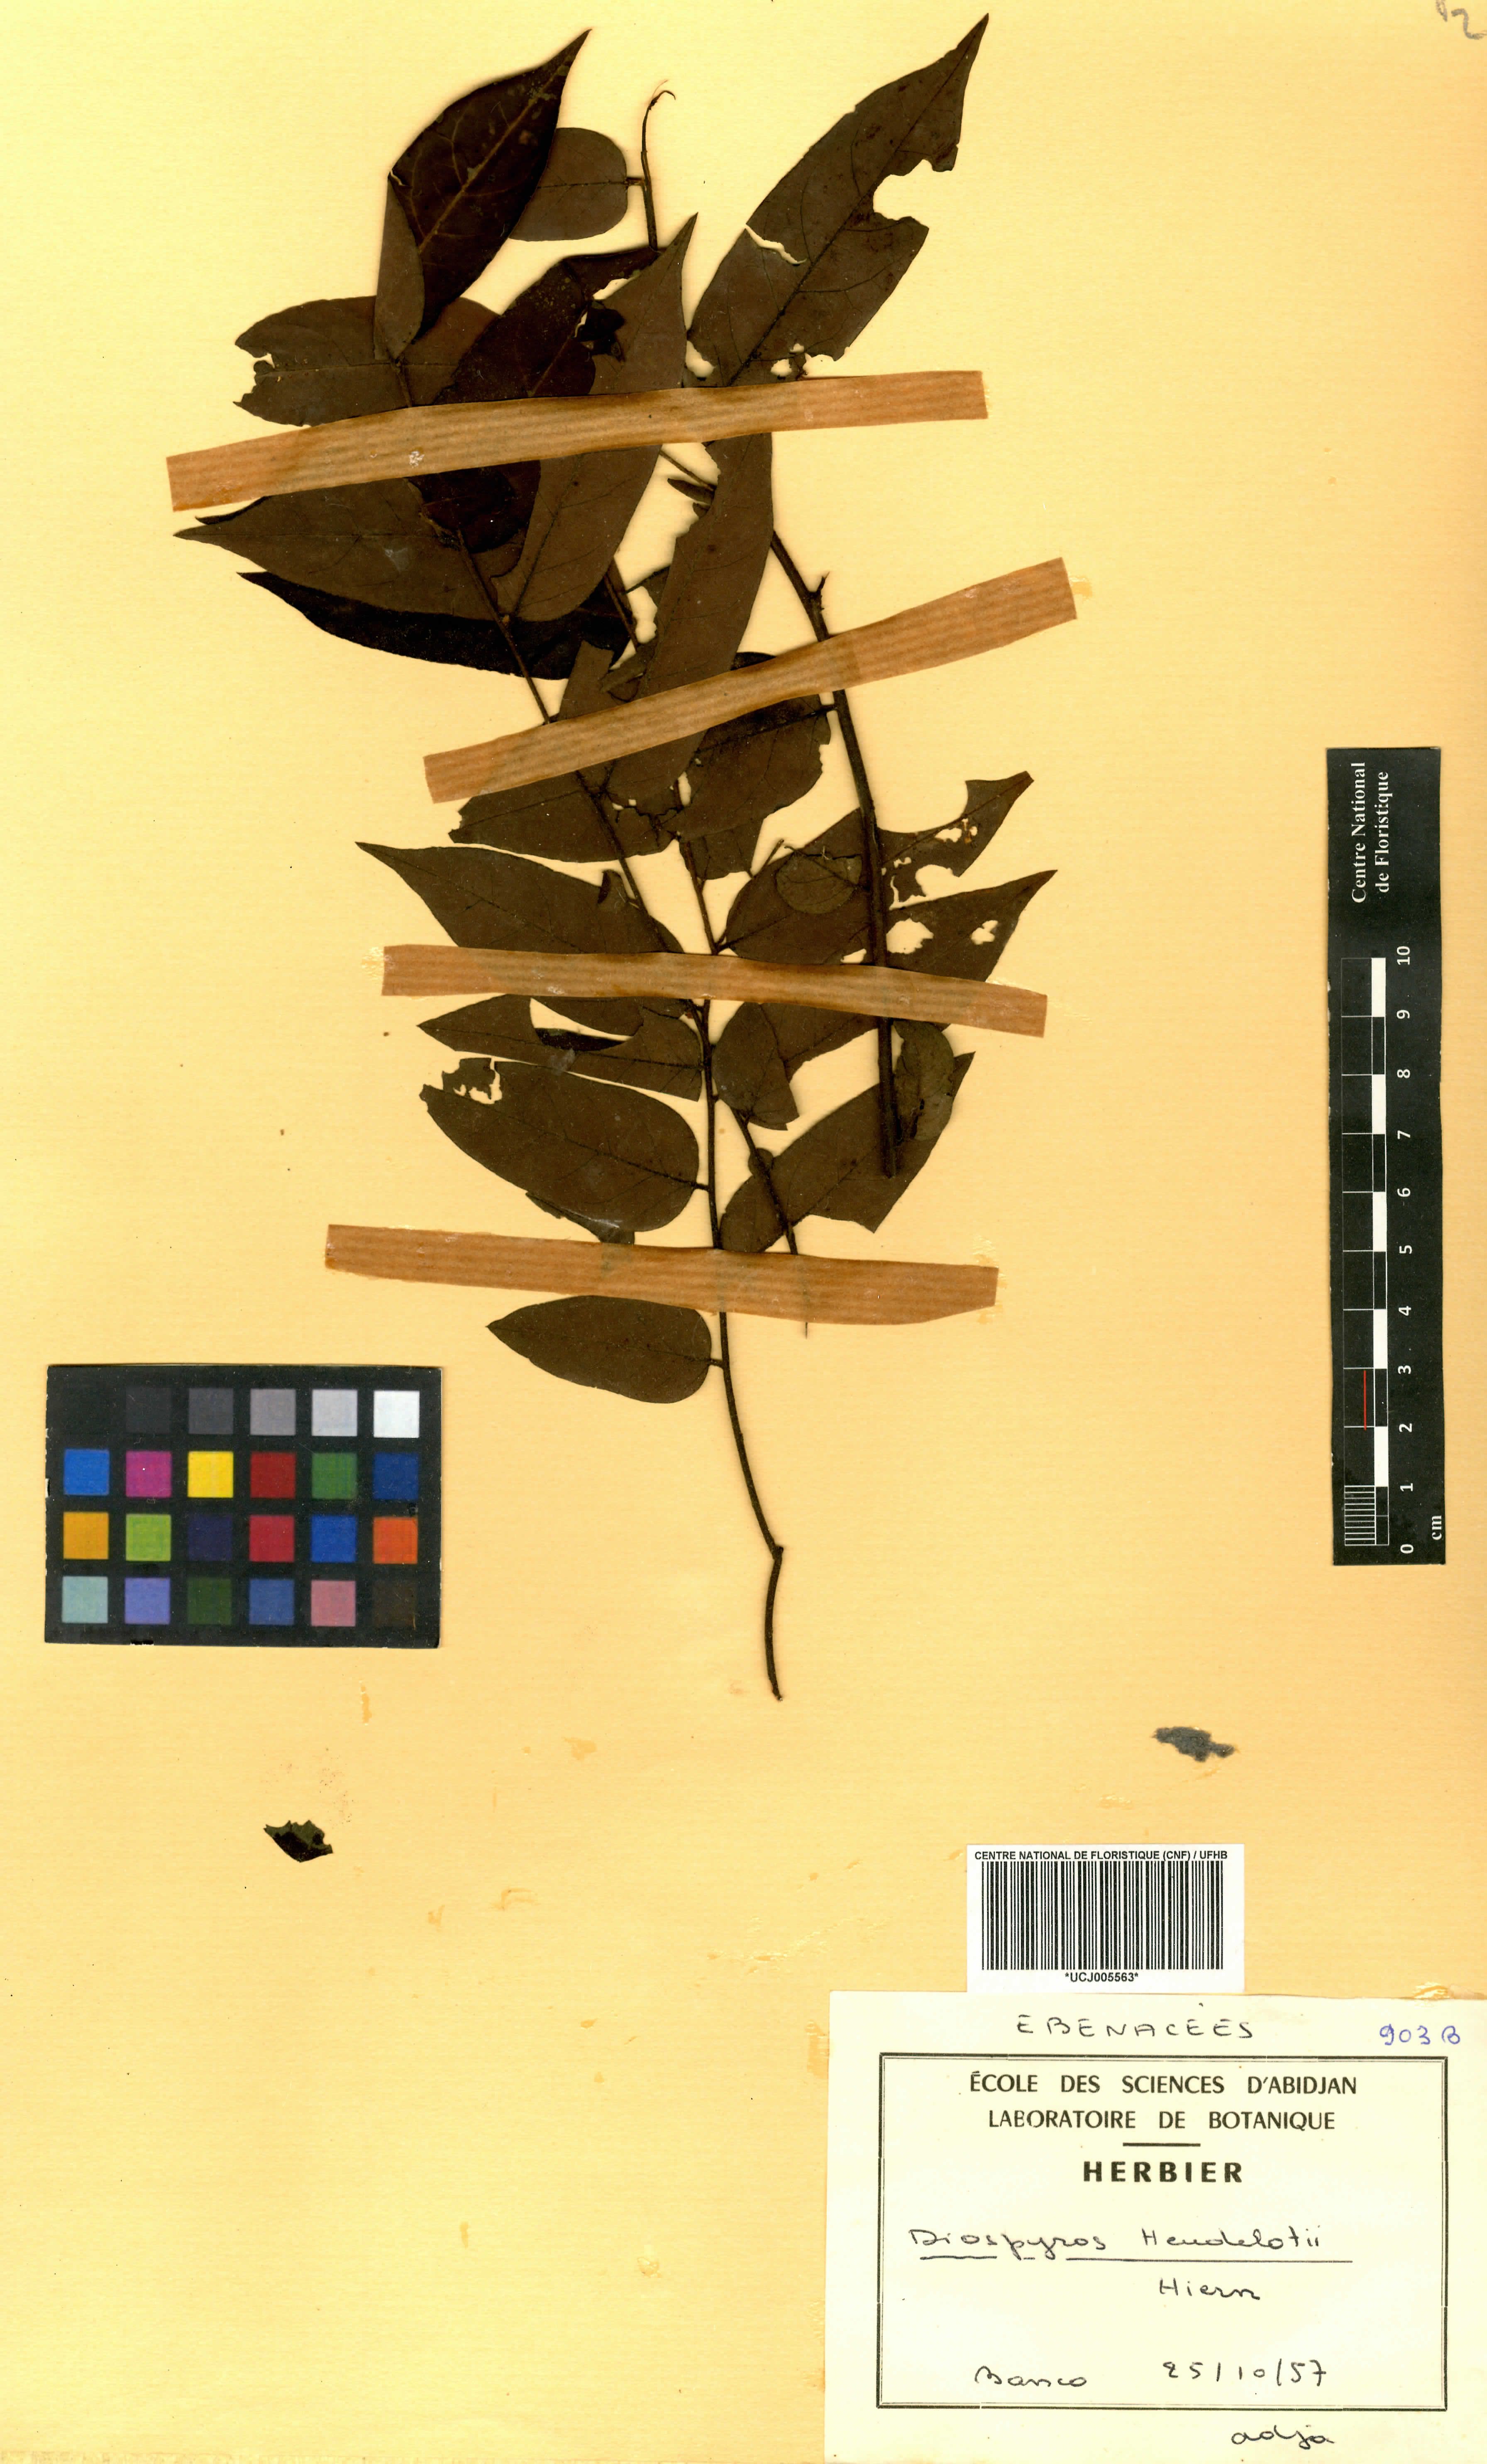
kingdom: Plantae
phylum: Tracheophyta
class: Magnoliopsida
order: Ericales
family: Ebenaceae
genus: Diospyros
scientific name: Diospyros heudelotii
